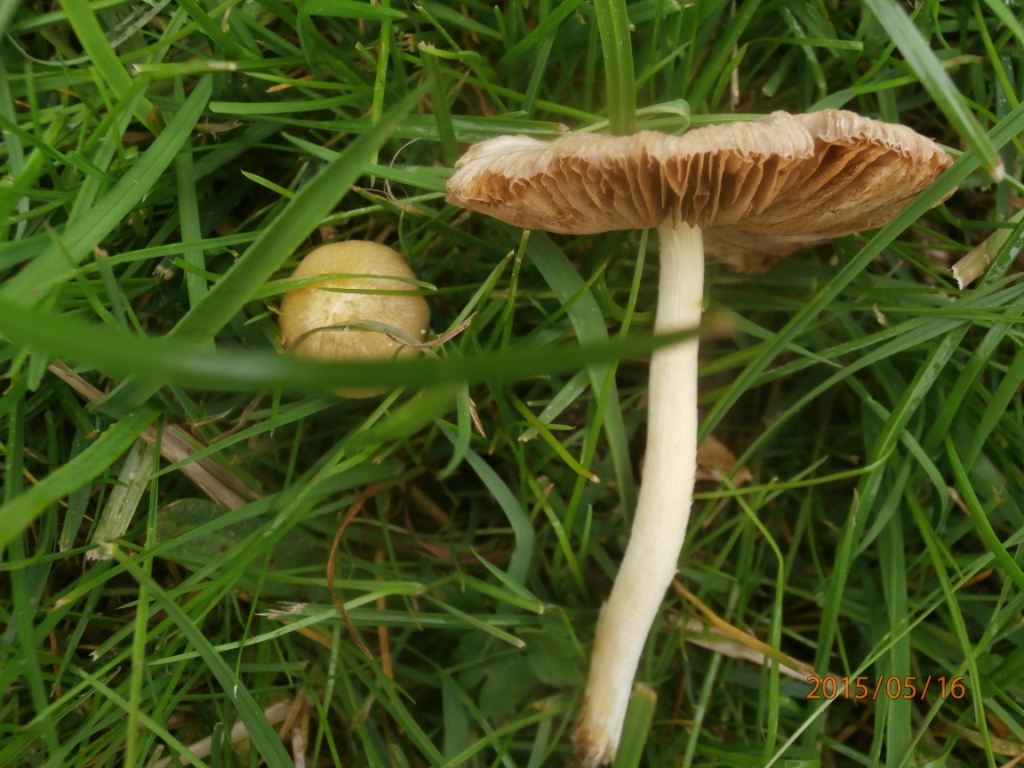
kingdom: Fungi
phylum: Basidiomycota
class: Agaricomycetes
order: Agaricales
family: Bolbitiaceae
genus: Bolbitius
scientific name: Bolbitius titubans
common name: almindelig gulhat
